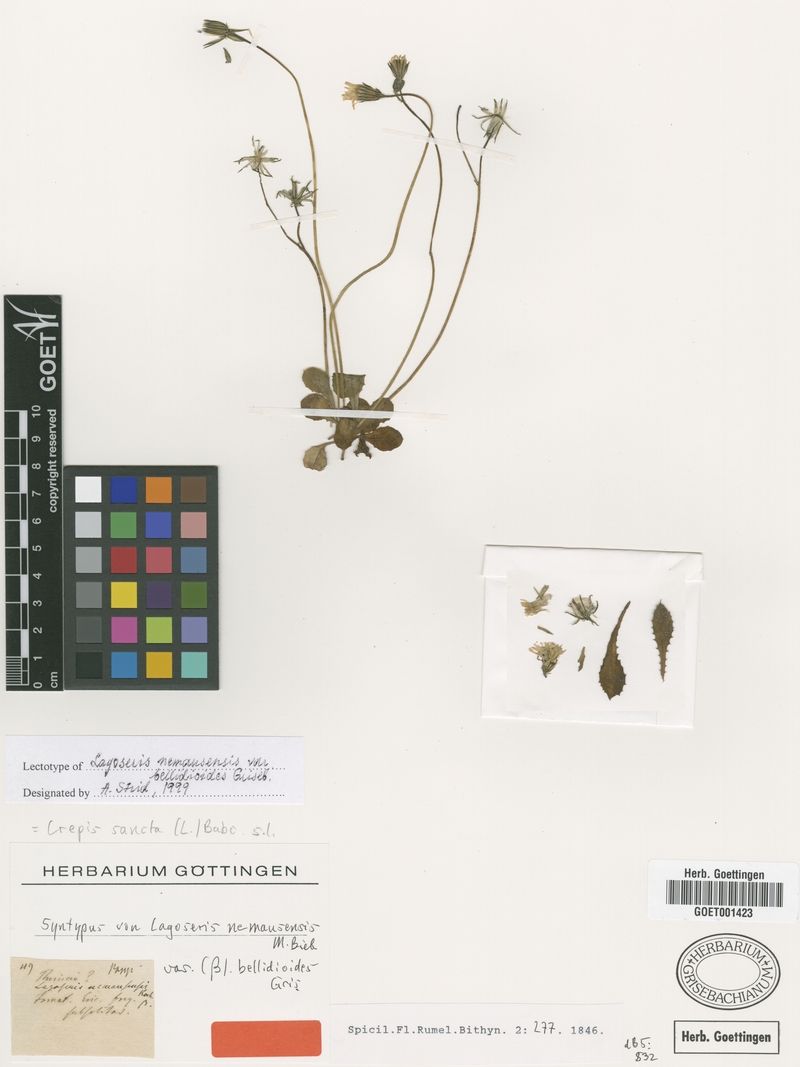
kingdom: Plantae
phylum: Tracheophyta
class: Magnoliopsida
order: Asterales
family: Asteraceae
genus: Crepis
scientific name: Crepis sancta
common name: Hawk's-beard
